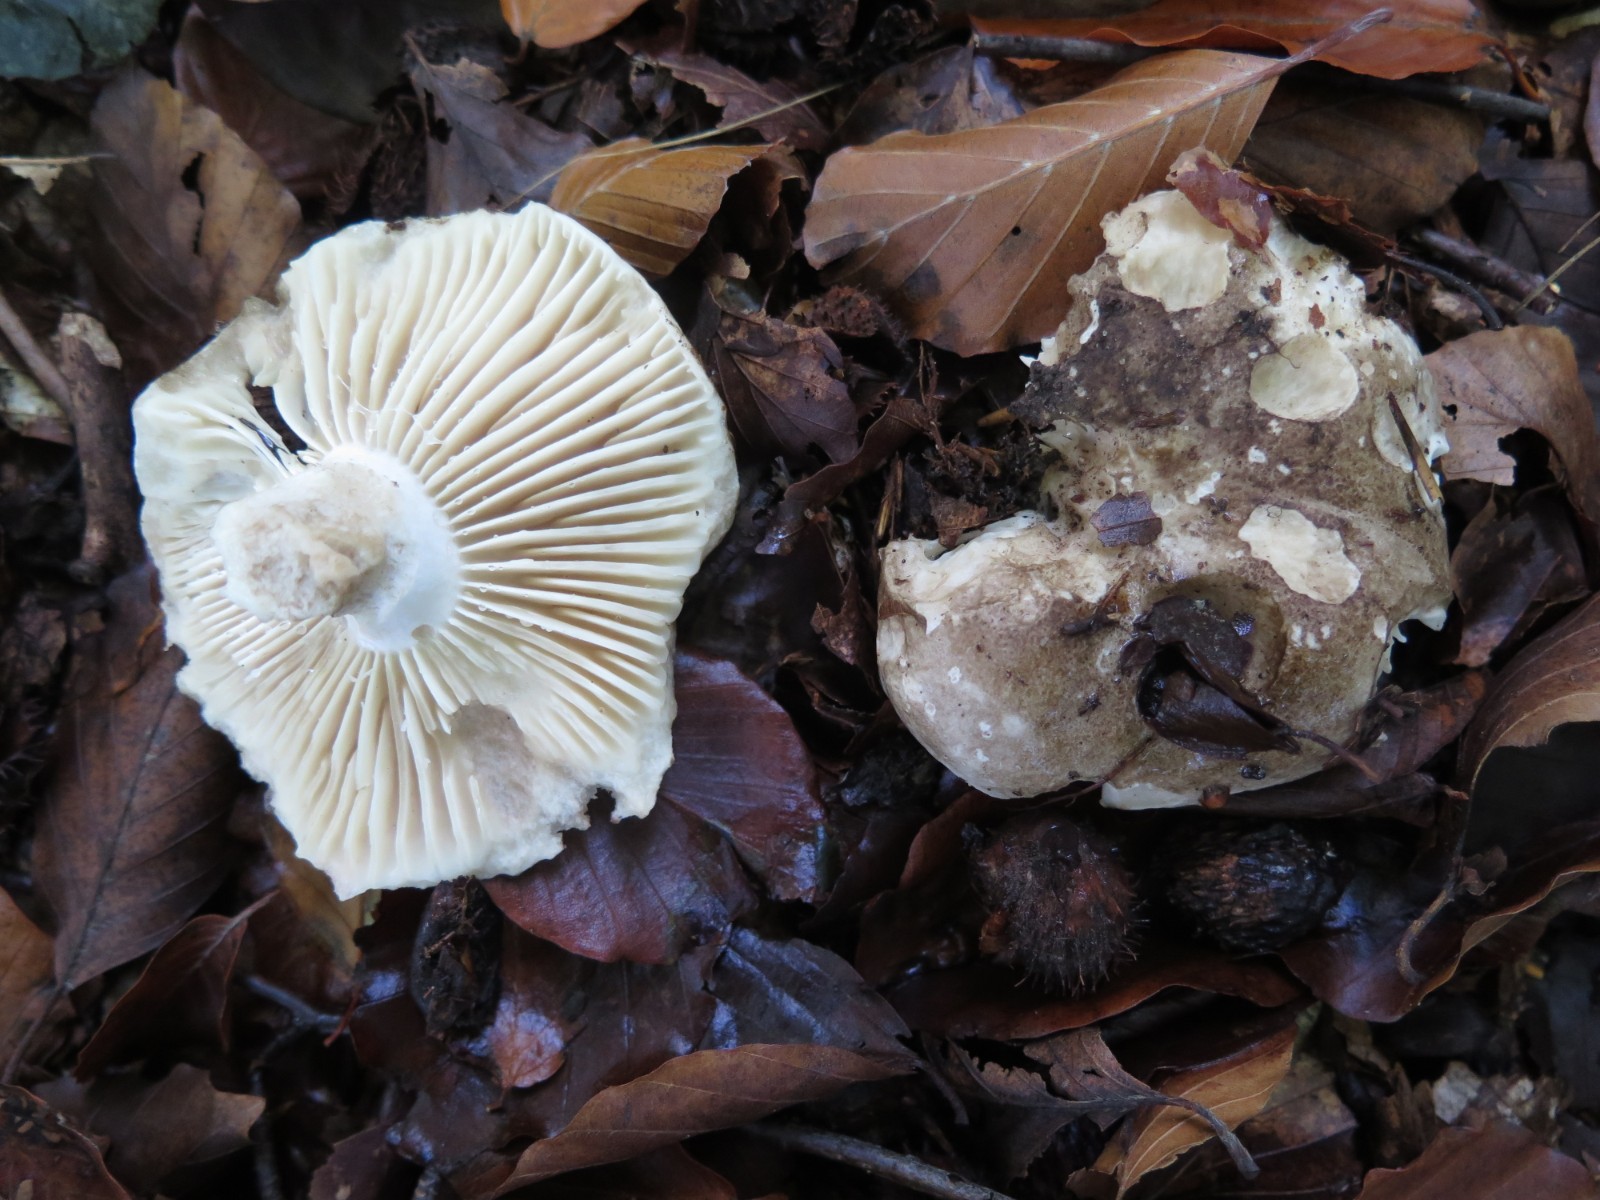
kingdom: Fungi
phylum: Basidiomycota
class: Agaricomycetes
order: Russulales
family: Russulaceae
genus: Russula
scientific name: Russula adusta
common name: sværtende skørhat
